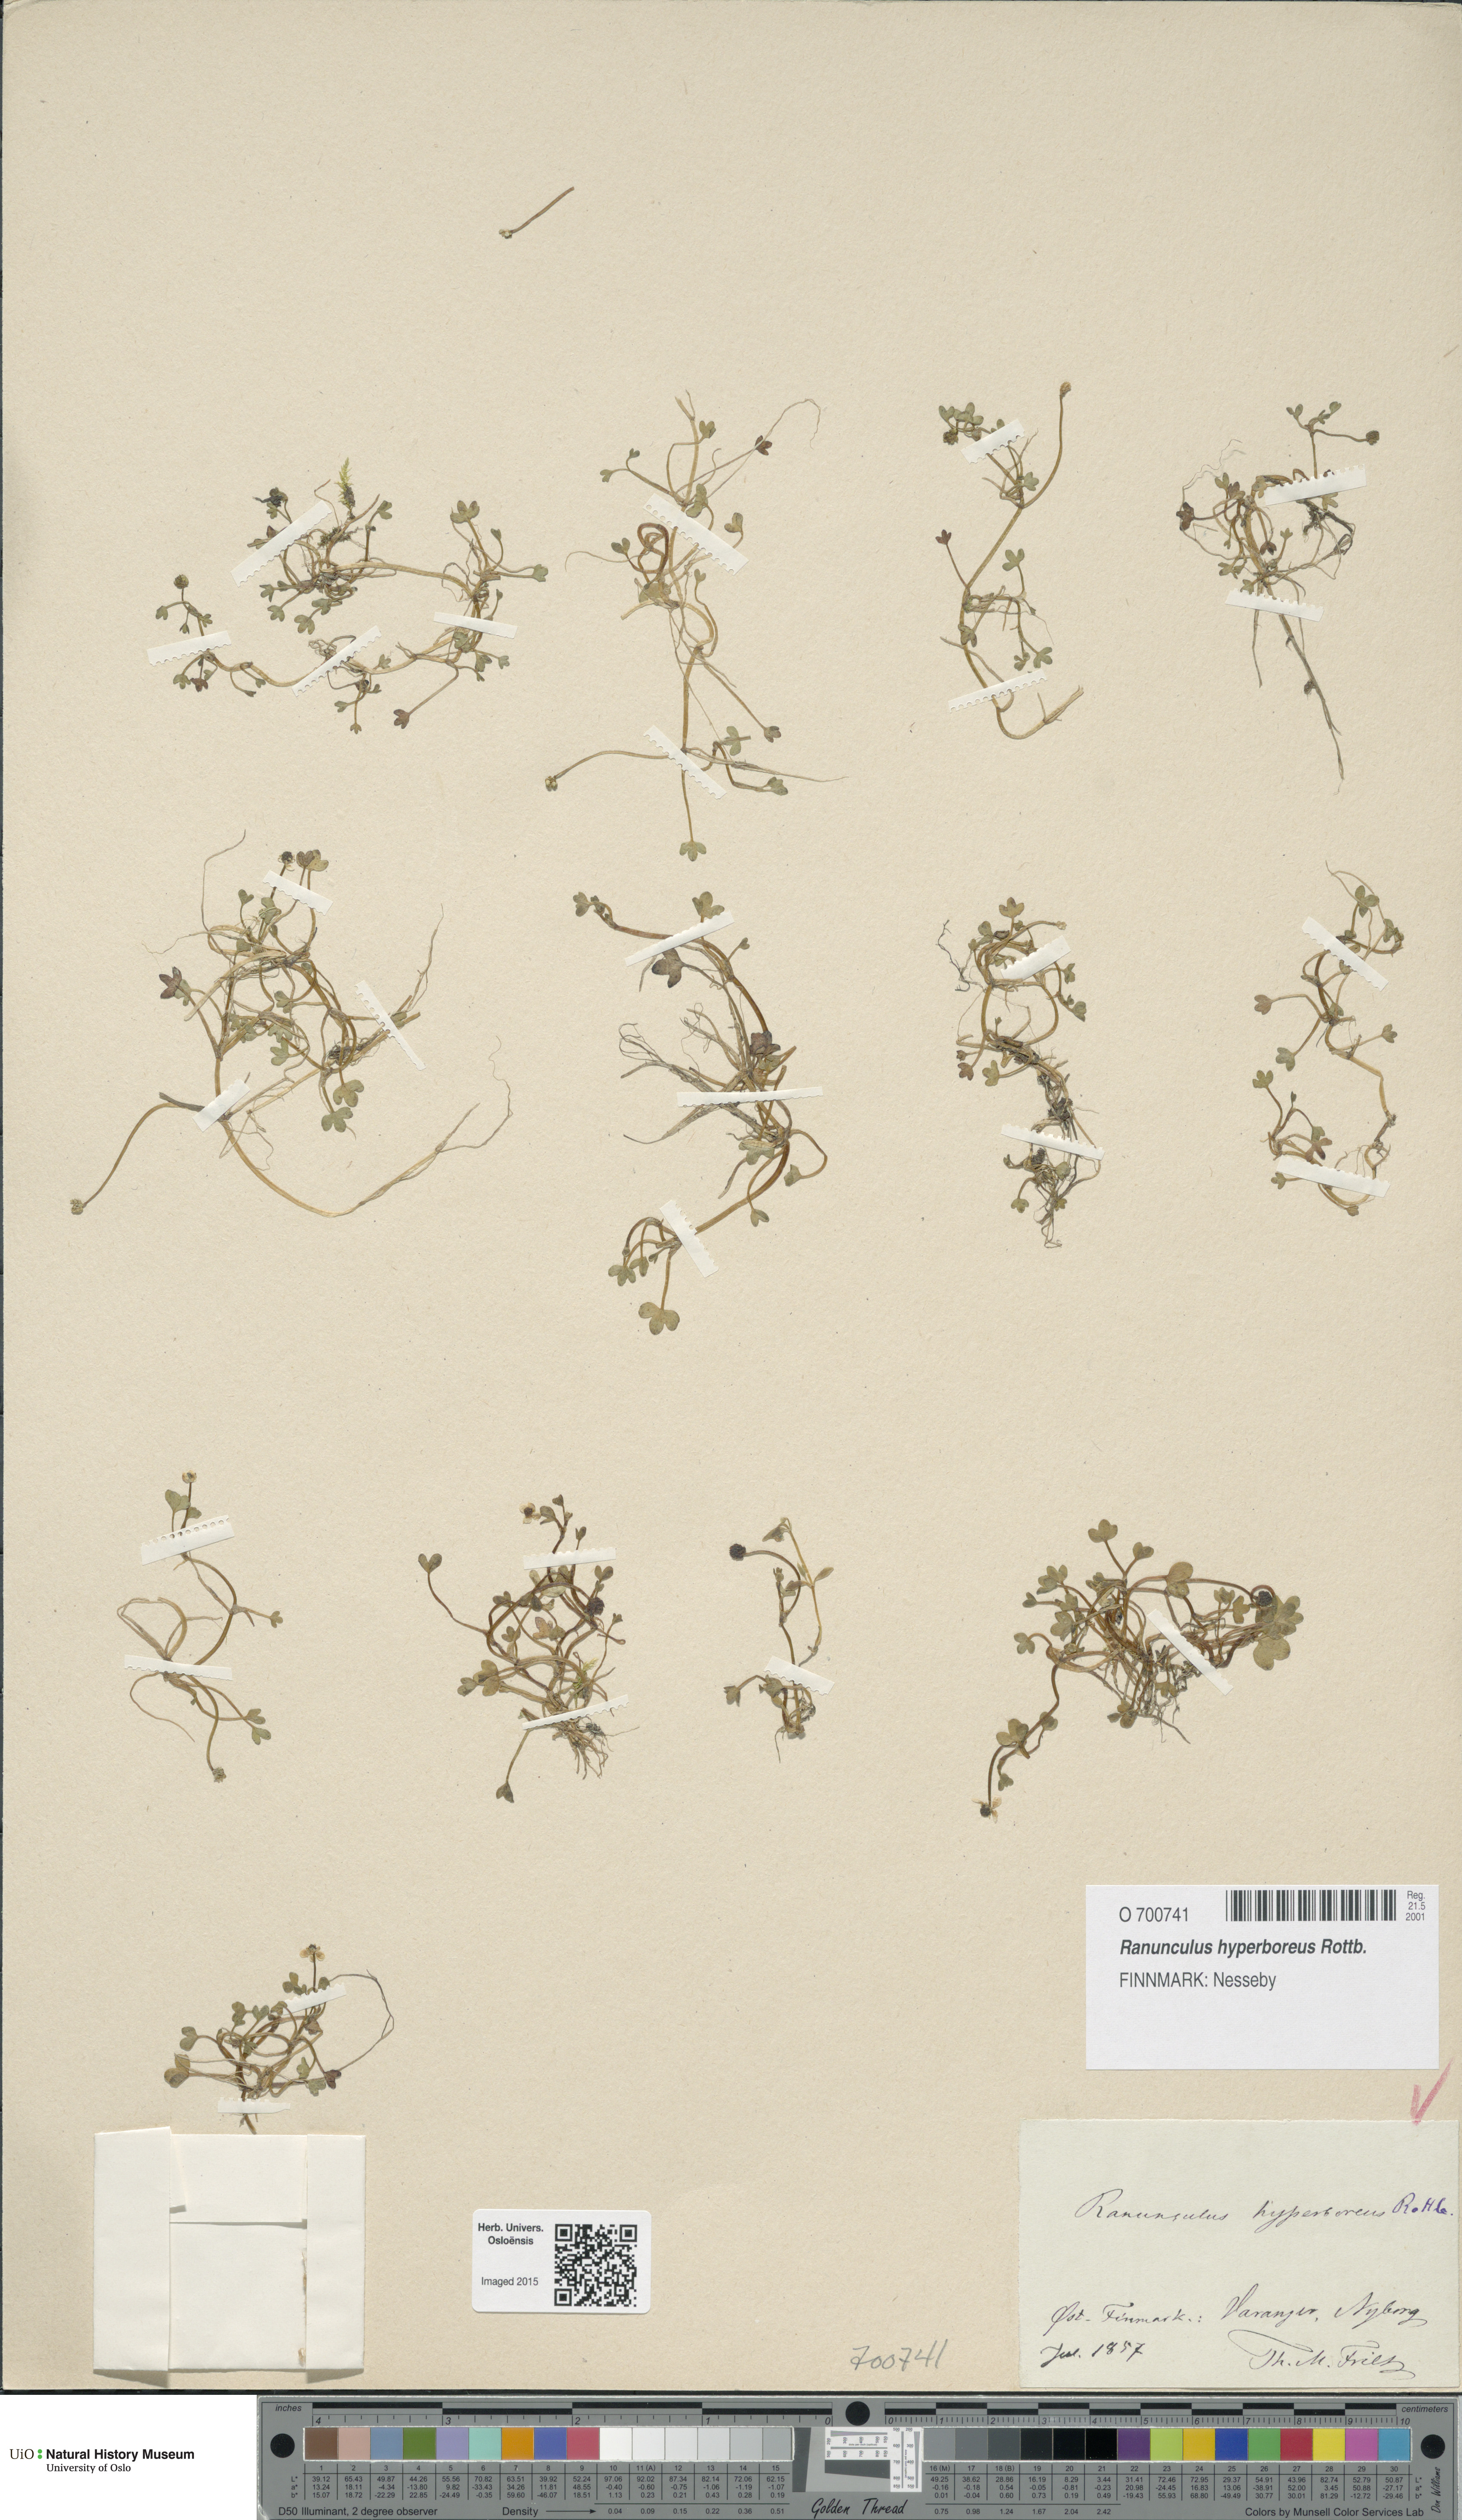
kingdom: Plantae
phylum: Tracheophyta
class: Magnoliopsida
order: Ranunculales
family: Ranunculaceae
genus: Ranunculus
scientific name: Ranunculus hyperboreus
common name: Arctic buttercup
